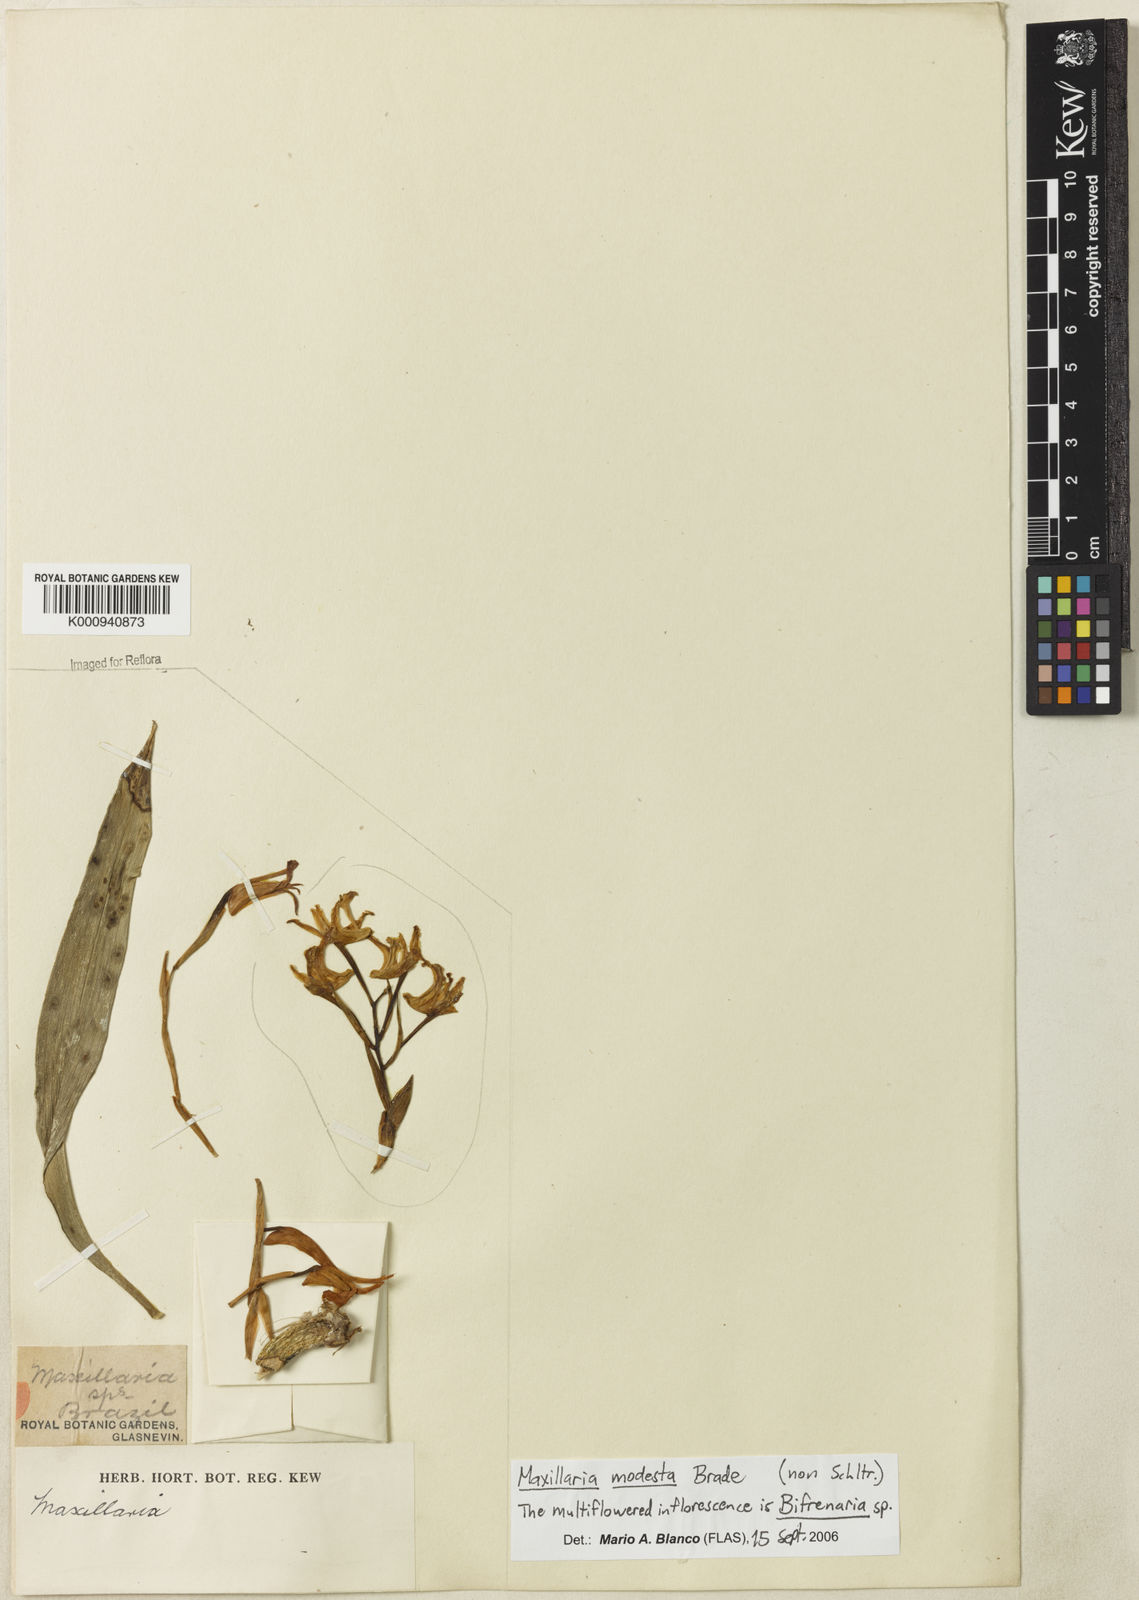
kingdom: Plantae
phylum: Tracheophyta
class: Liliopsida
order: Asparagales
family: Orchidaceae
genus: Maxillaria
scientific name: Maxillaria
